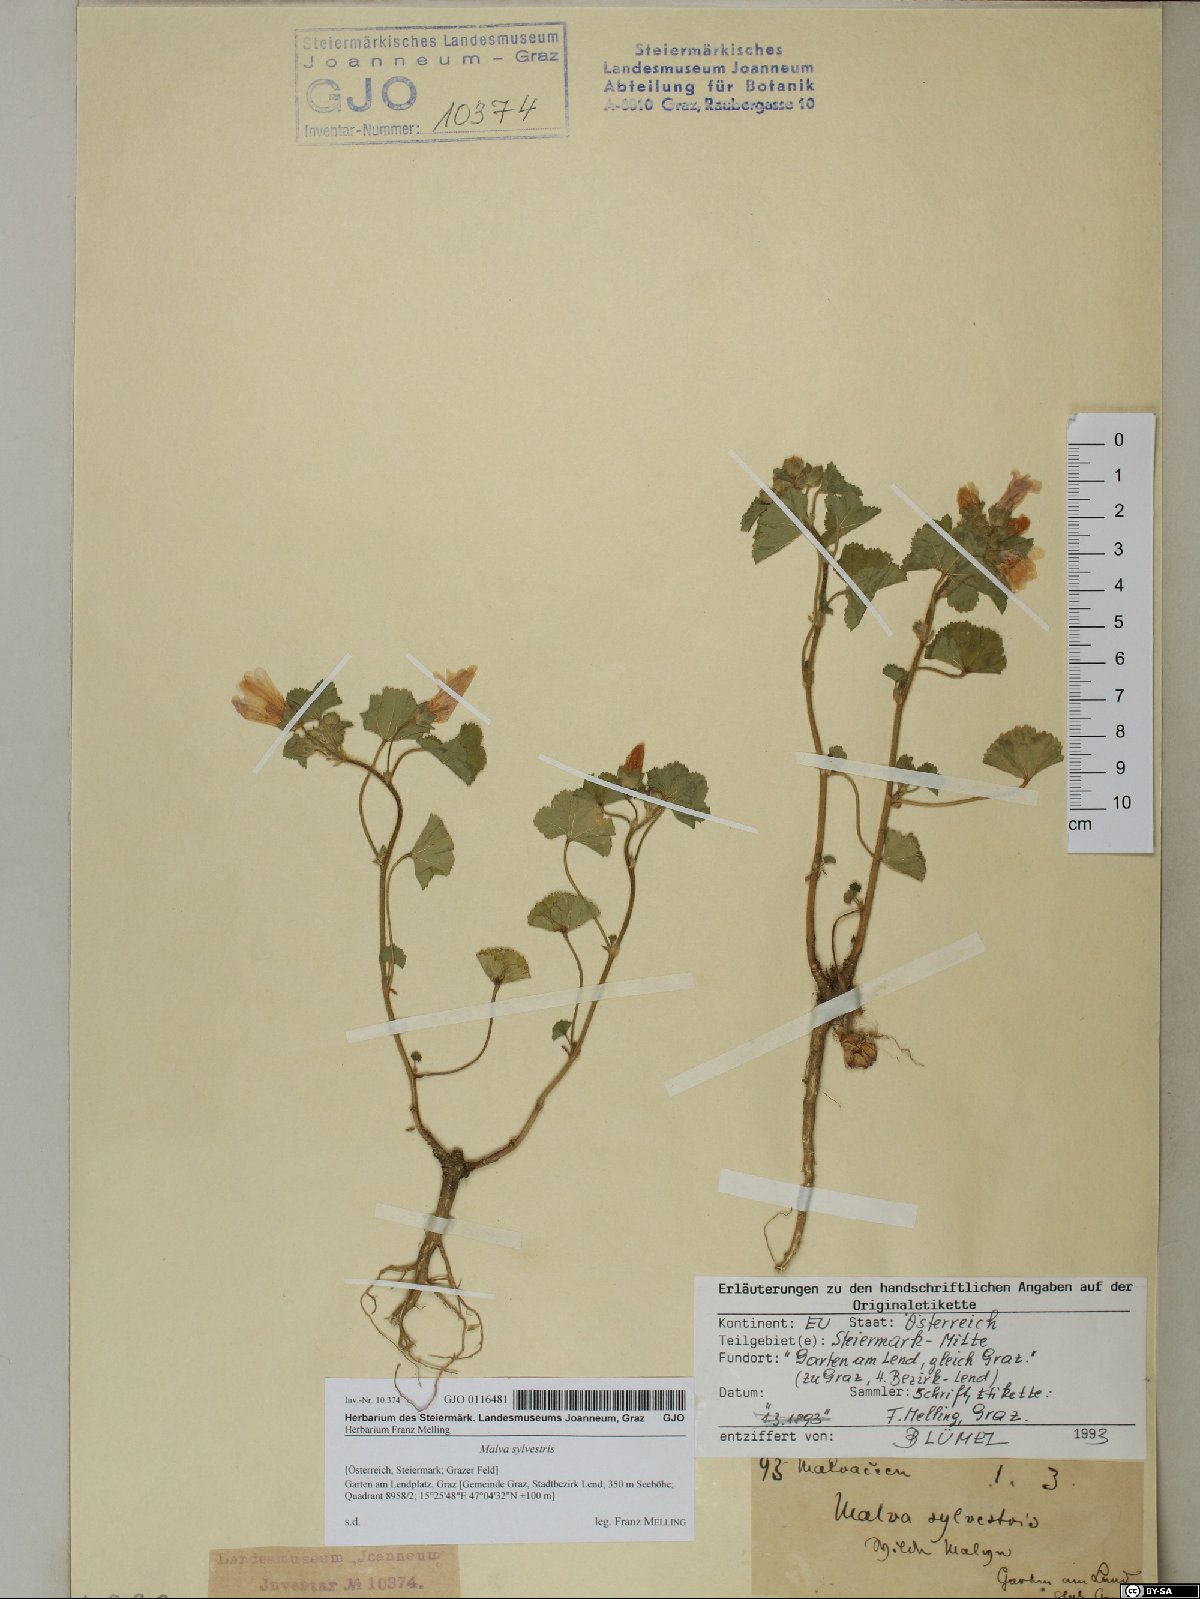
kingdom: Plantae
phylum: Tracheophyta
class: Magnoliopsida
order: Malvales
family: Malvaceae
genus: Malva
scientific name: Malva sylvestris
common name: Common mallow
